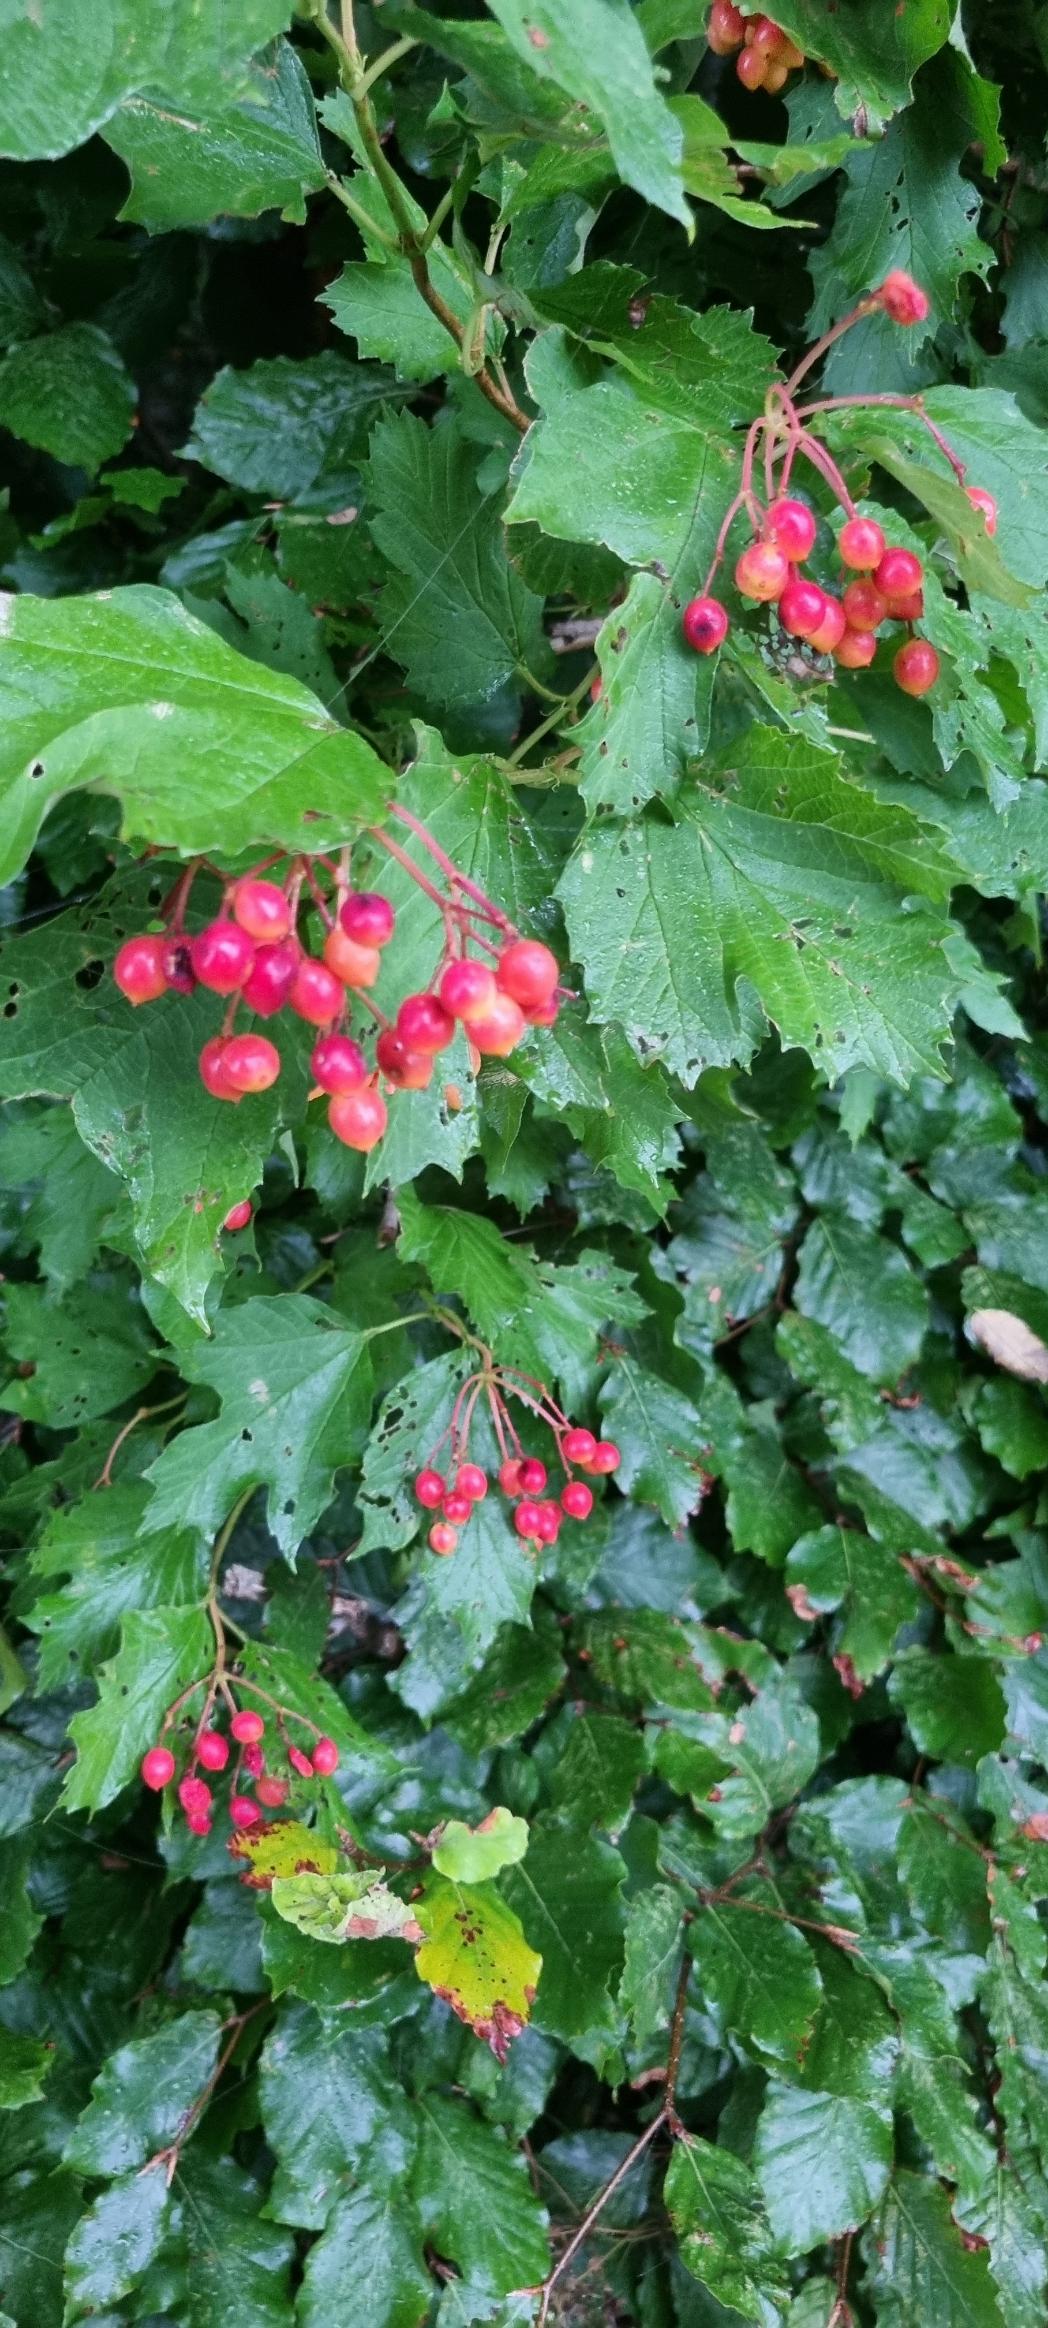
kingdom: Plantae
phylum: Tracheophyta
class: Magnoliopsida
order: Dipsacales
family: Viburnaceae
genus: Viburnum
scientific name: Viburnum opulus
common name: Kvalkved
